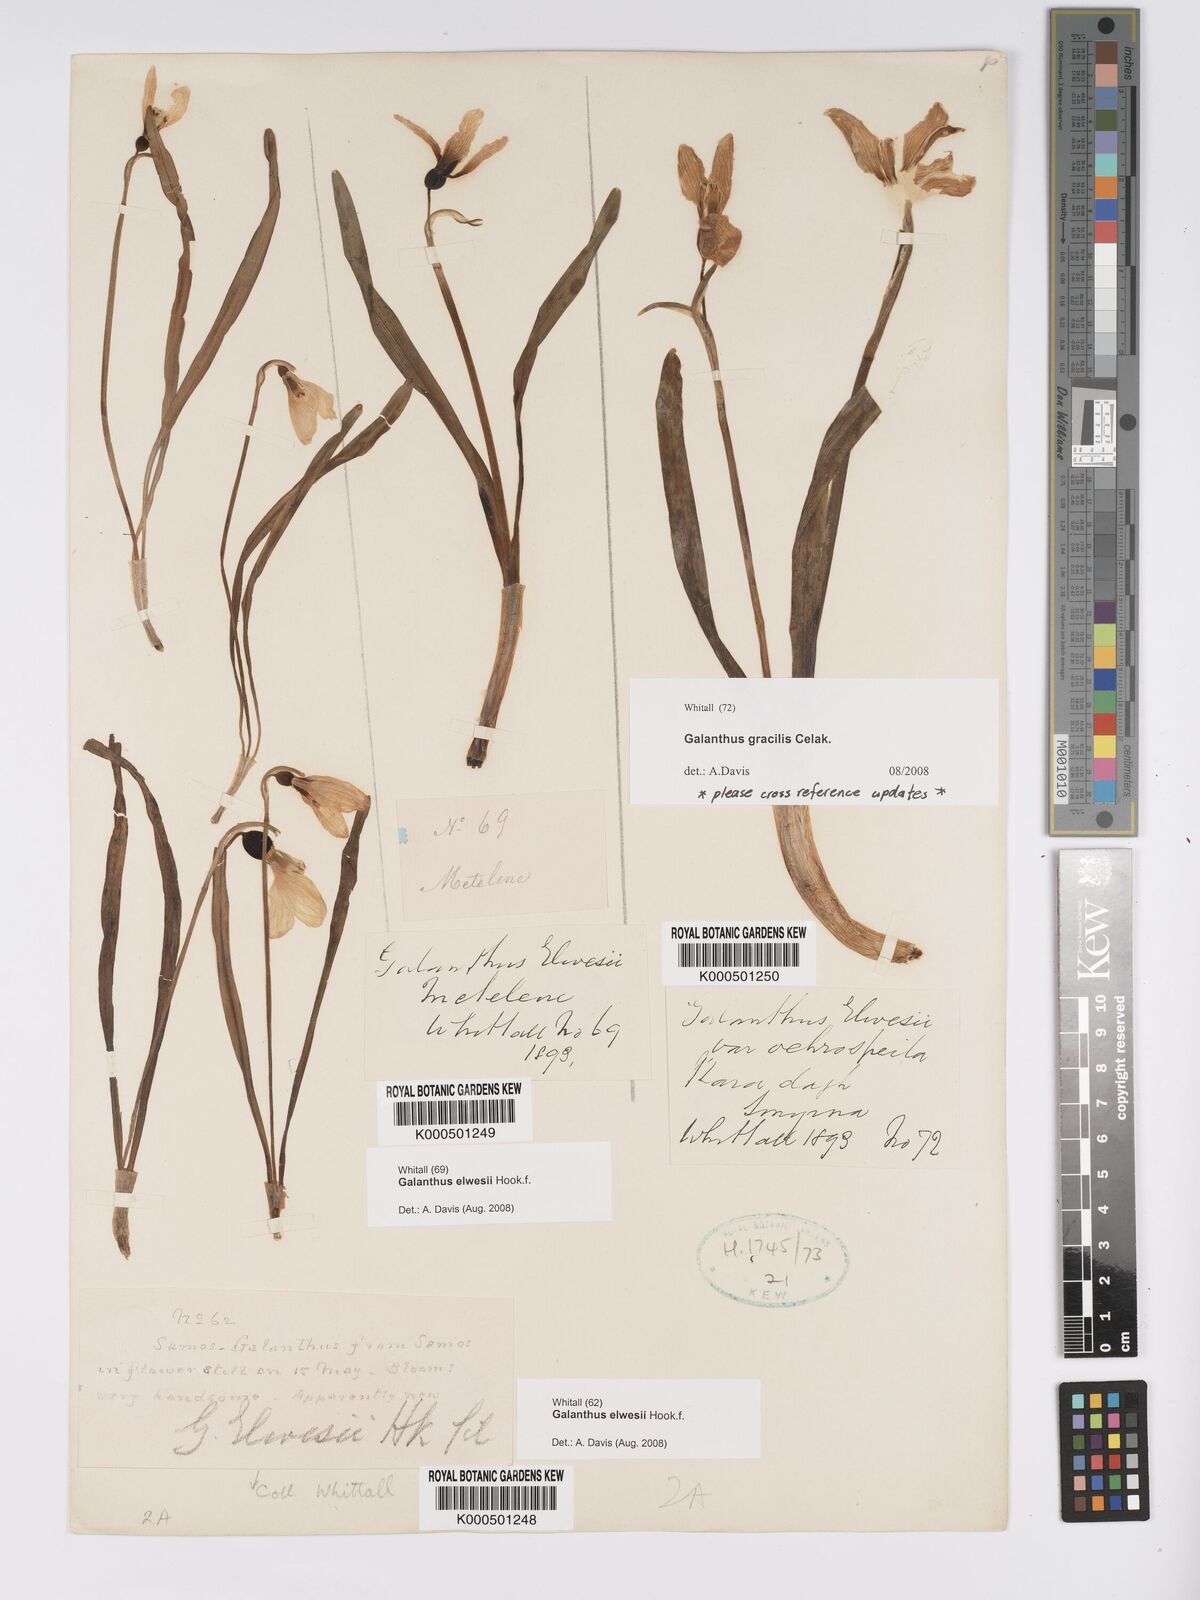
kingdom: Plantae
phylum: Tracheophyta
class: Liliopsida
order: Asparagales
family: Amaryllidaceae
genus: Galanthus
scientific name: Galanthus elwesii
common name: Greater snowdrop
